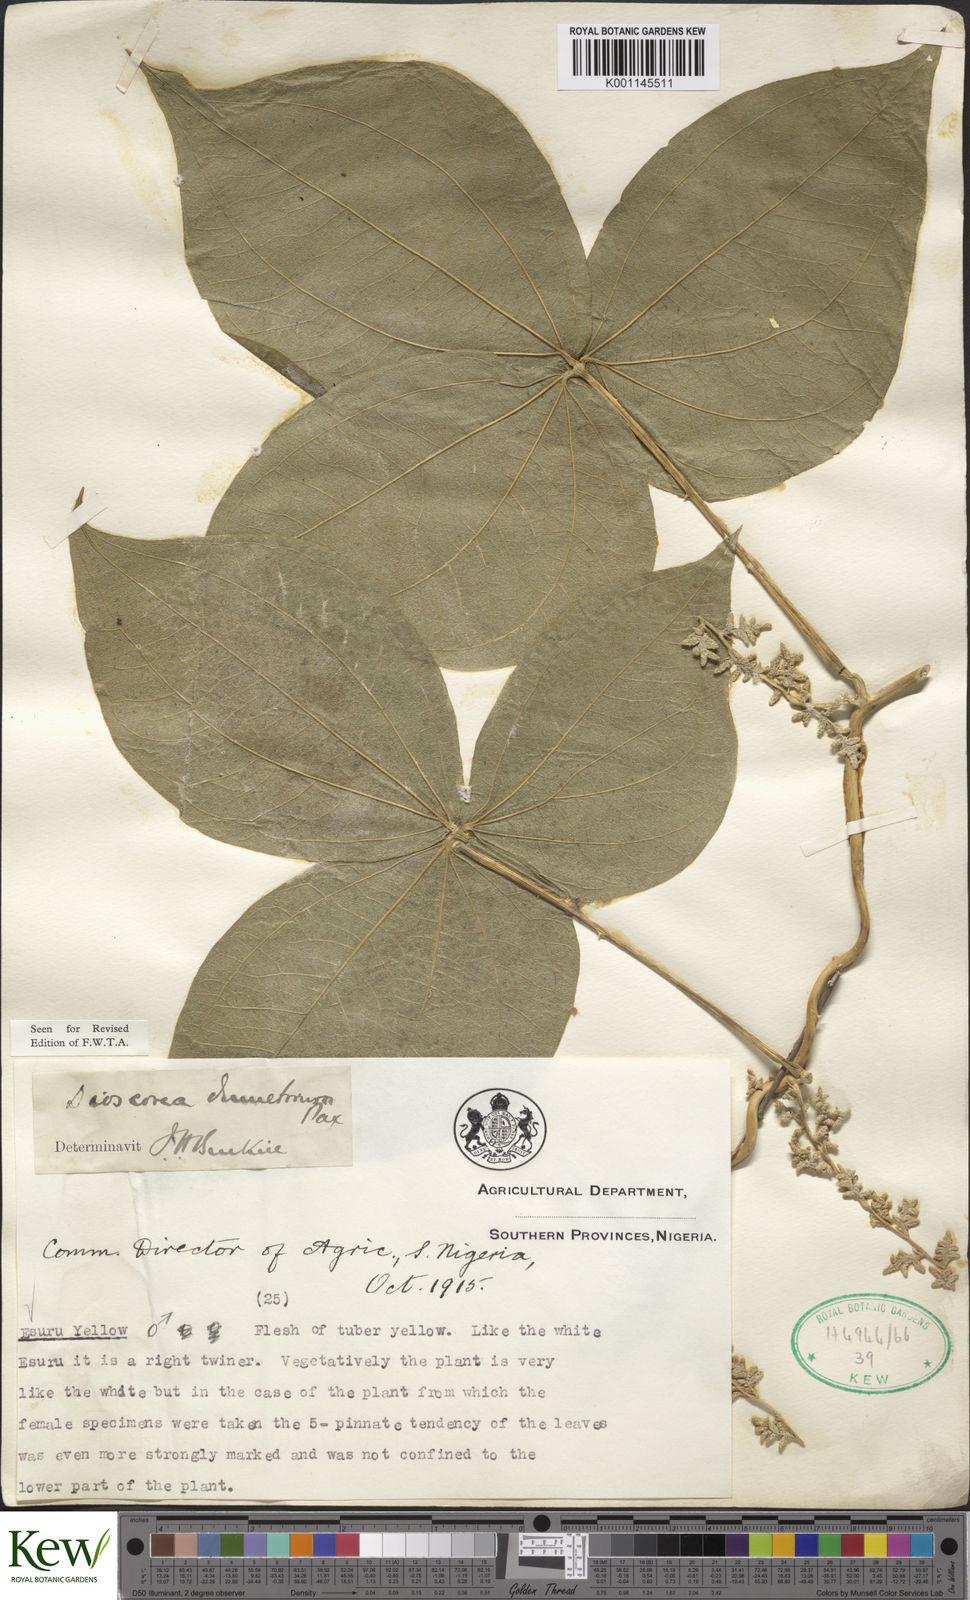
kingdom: Plantae
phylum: Tracheophyta
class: Liliopsida
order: Dioscoreales
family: Dioscoreaceae
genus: Dioscorea
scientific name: Dioscorea dumetorum
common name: African bitter yam
